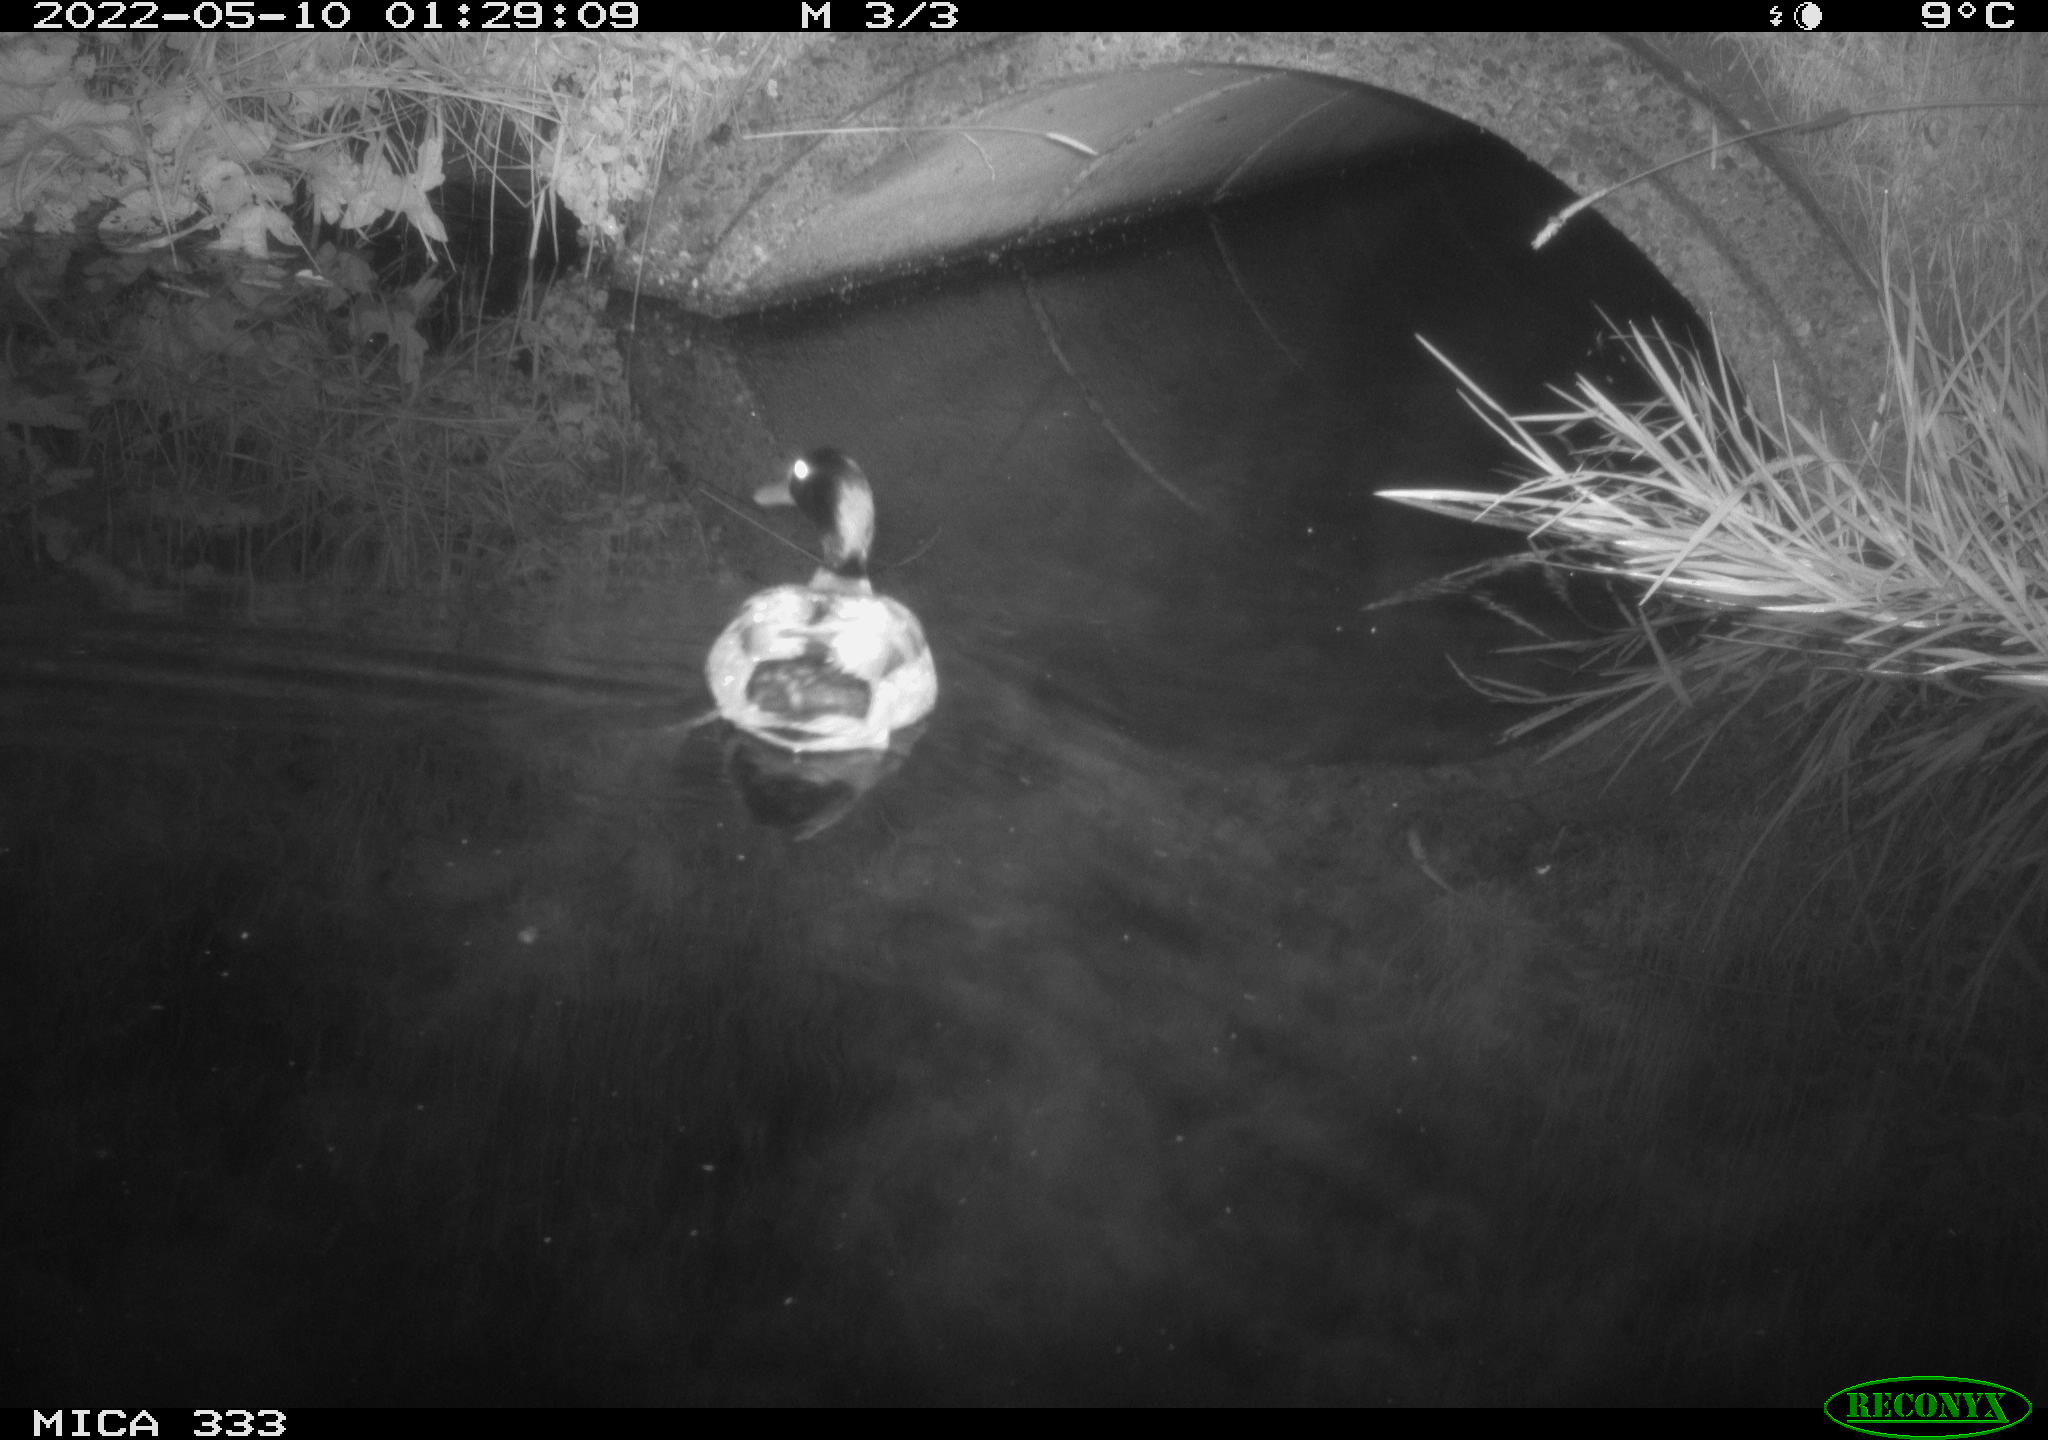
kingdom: Animalia
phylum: Chordata
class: Aves
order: Anseriformes
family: Anatidae
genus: Anas
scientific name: Anas platyrhynchos
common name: Mallard
